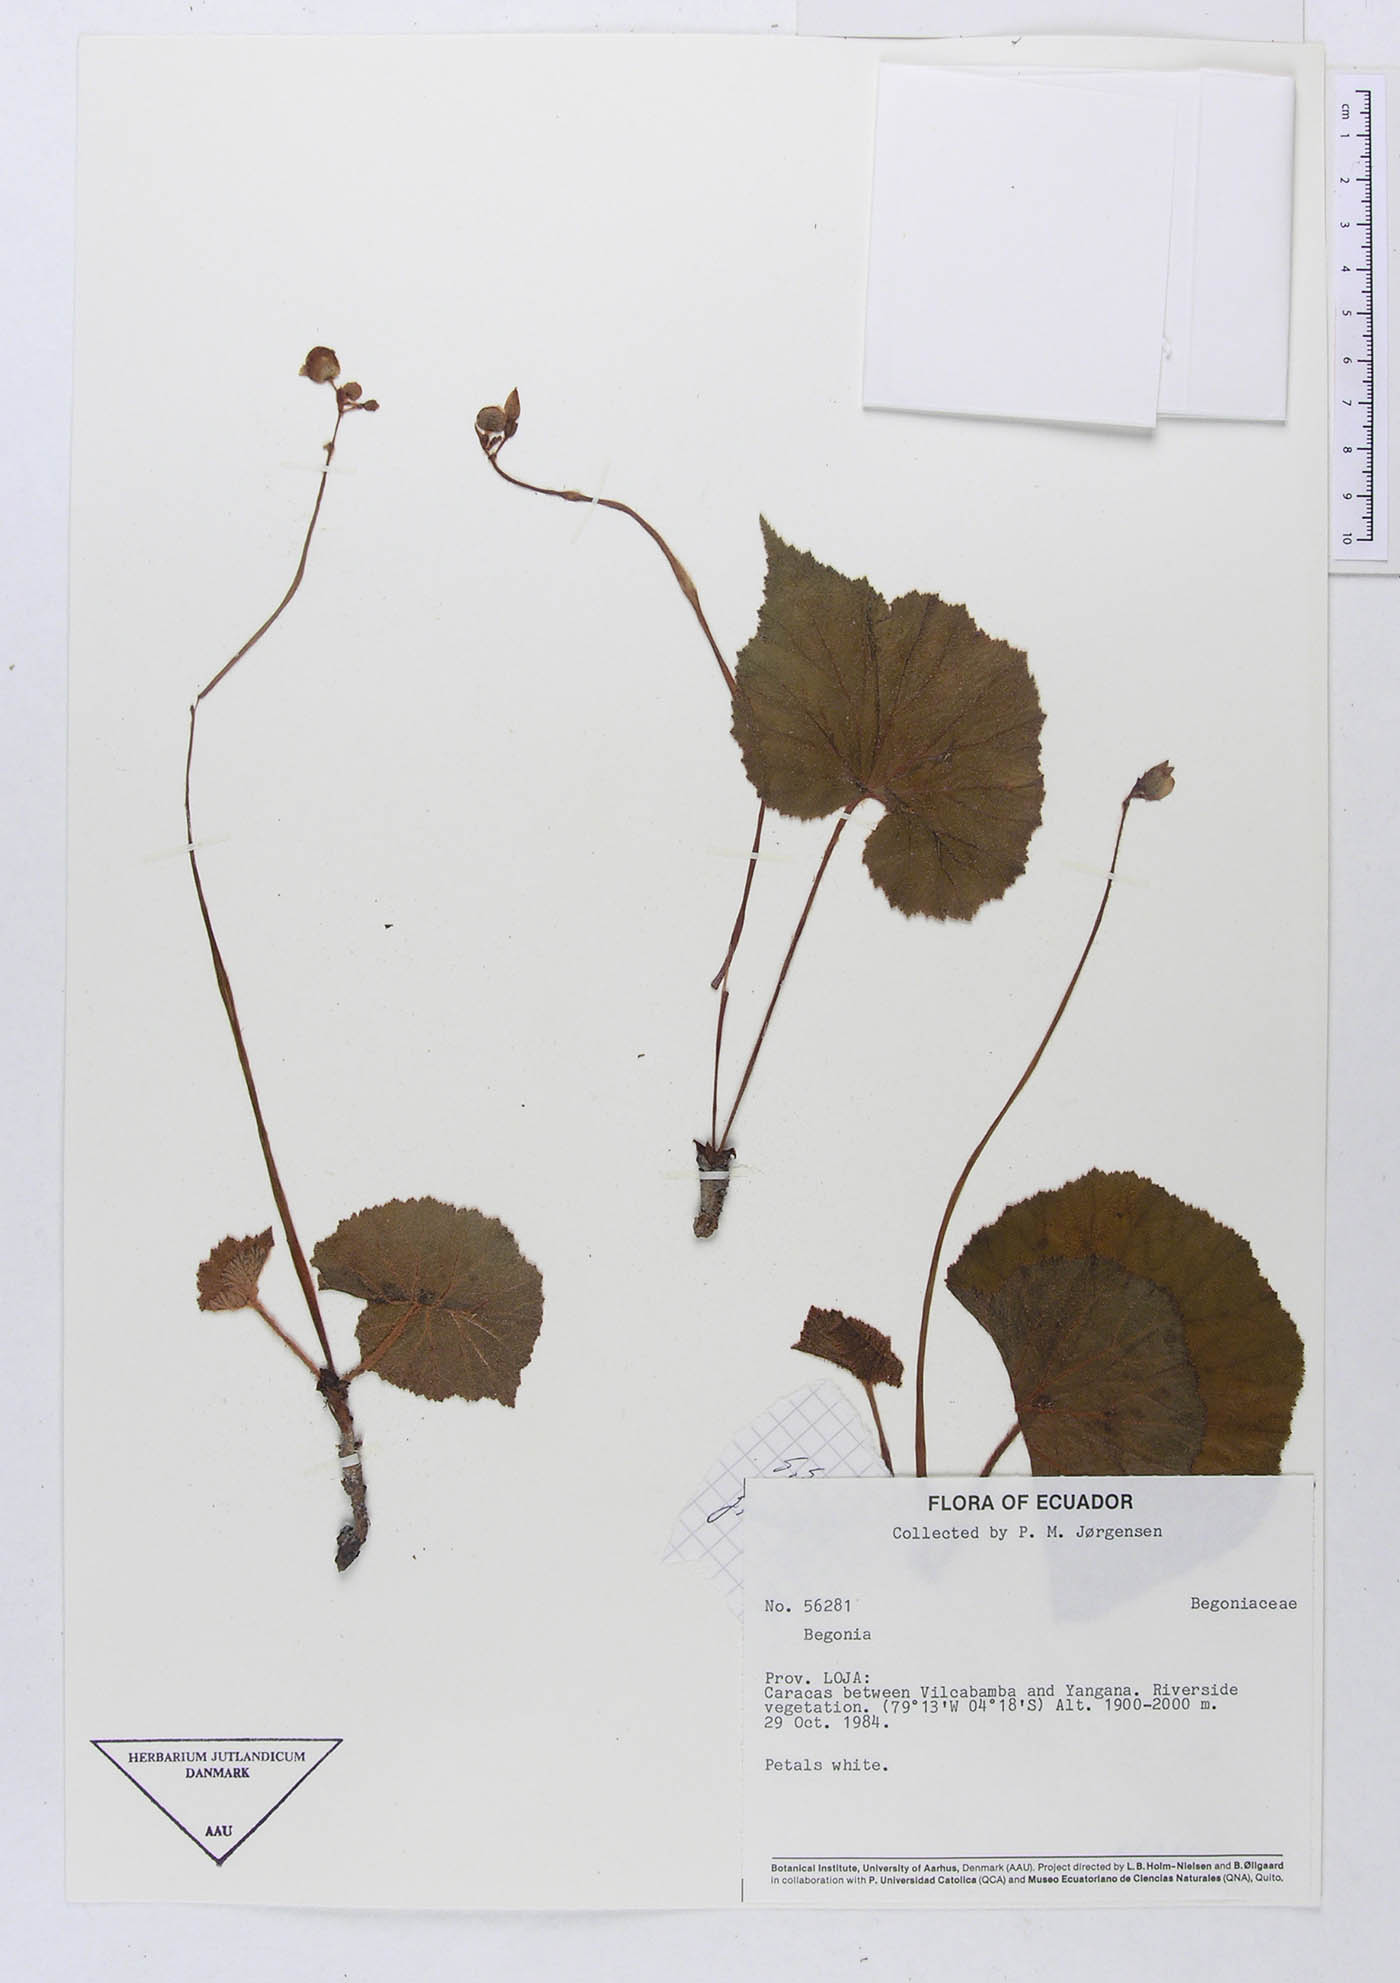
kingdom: Plantae
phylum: Tracheophyta
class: Magnoliopsida
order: Cucurbitales
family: Begoniaceae
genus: Begonia
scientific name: Begonia parcifolia
